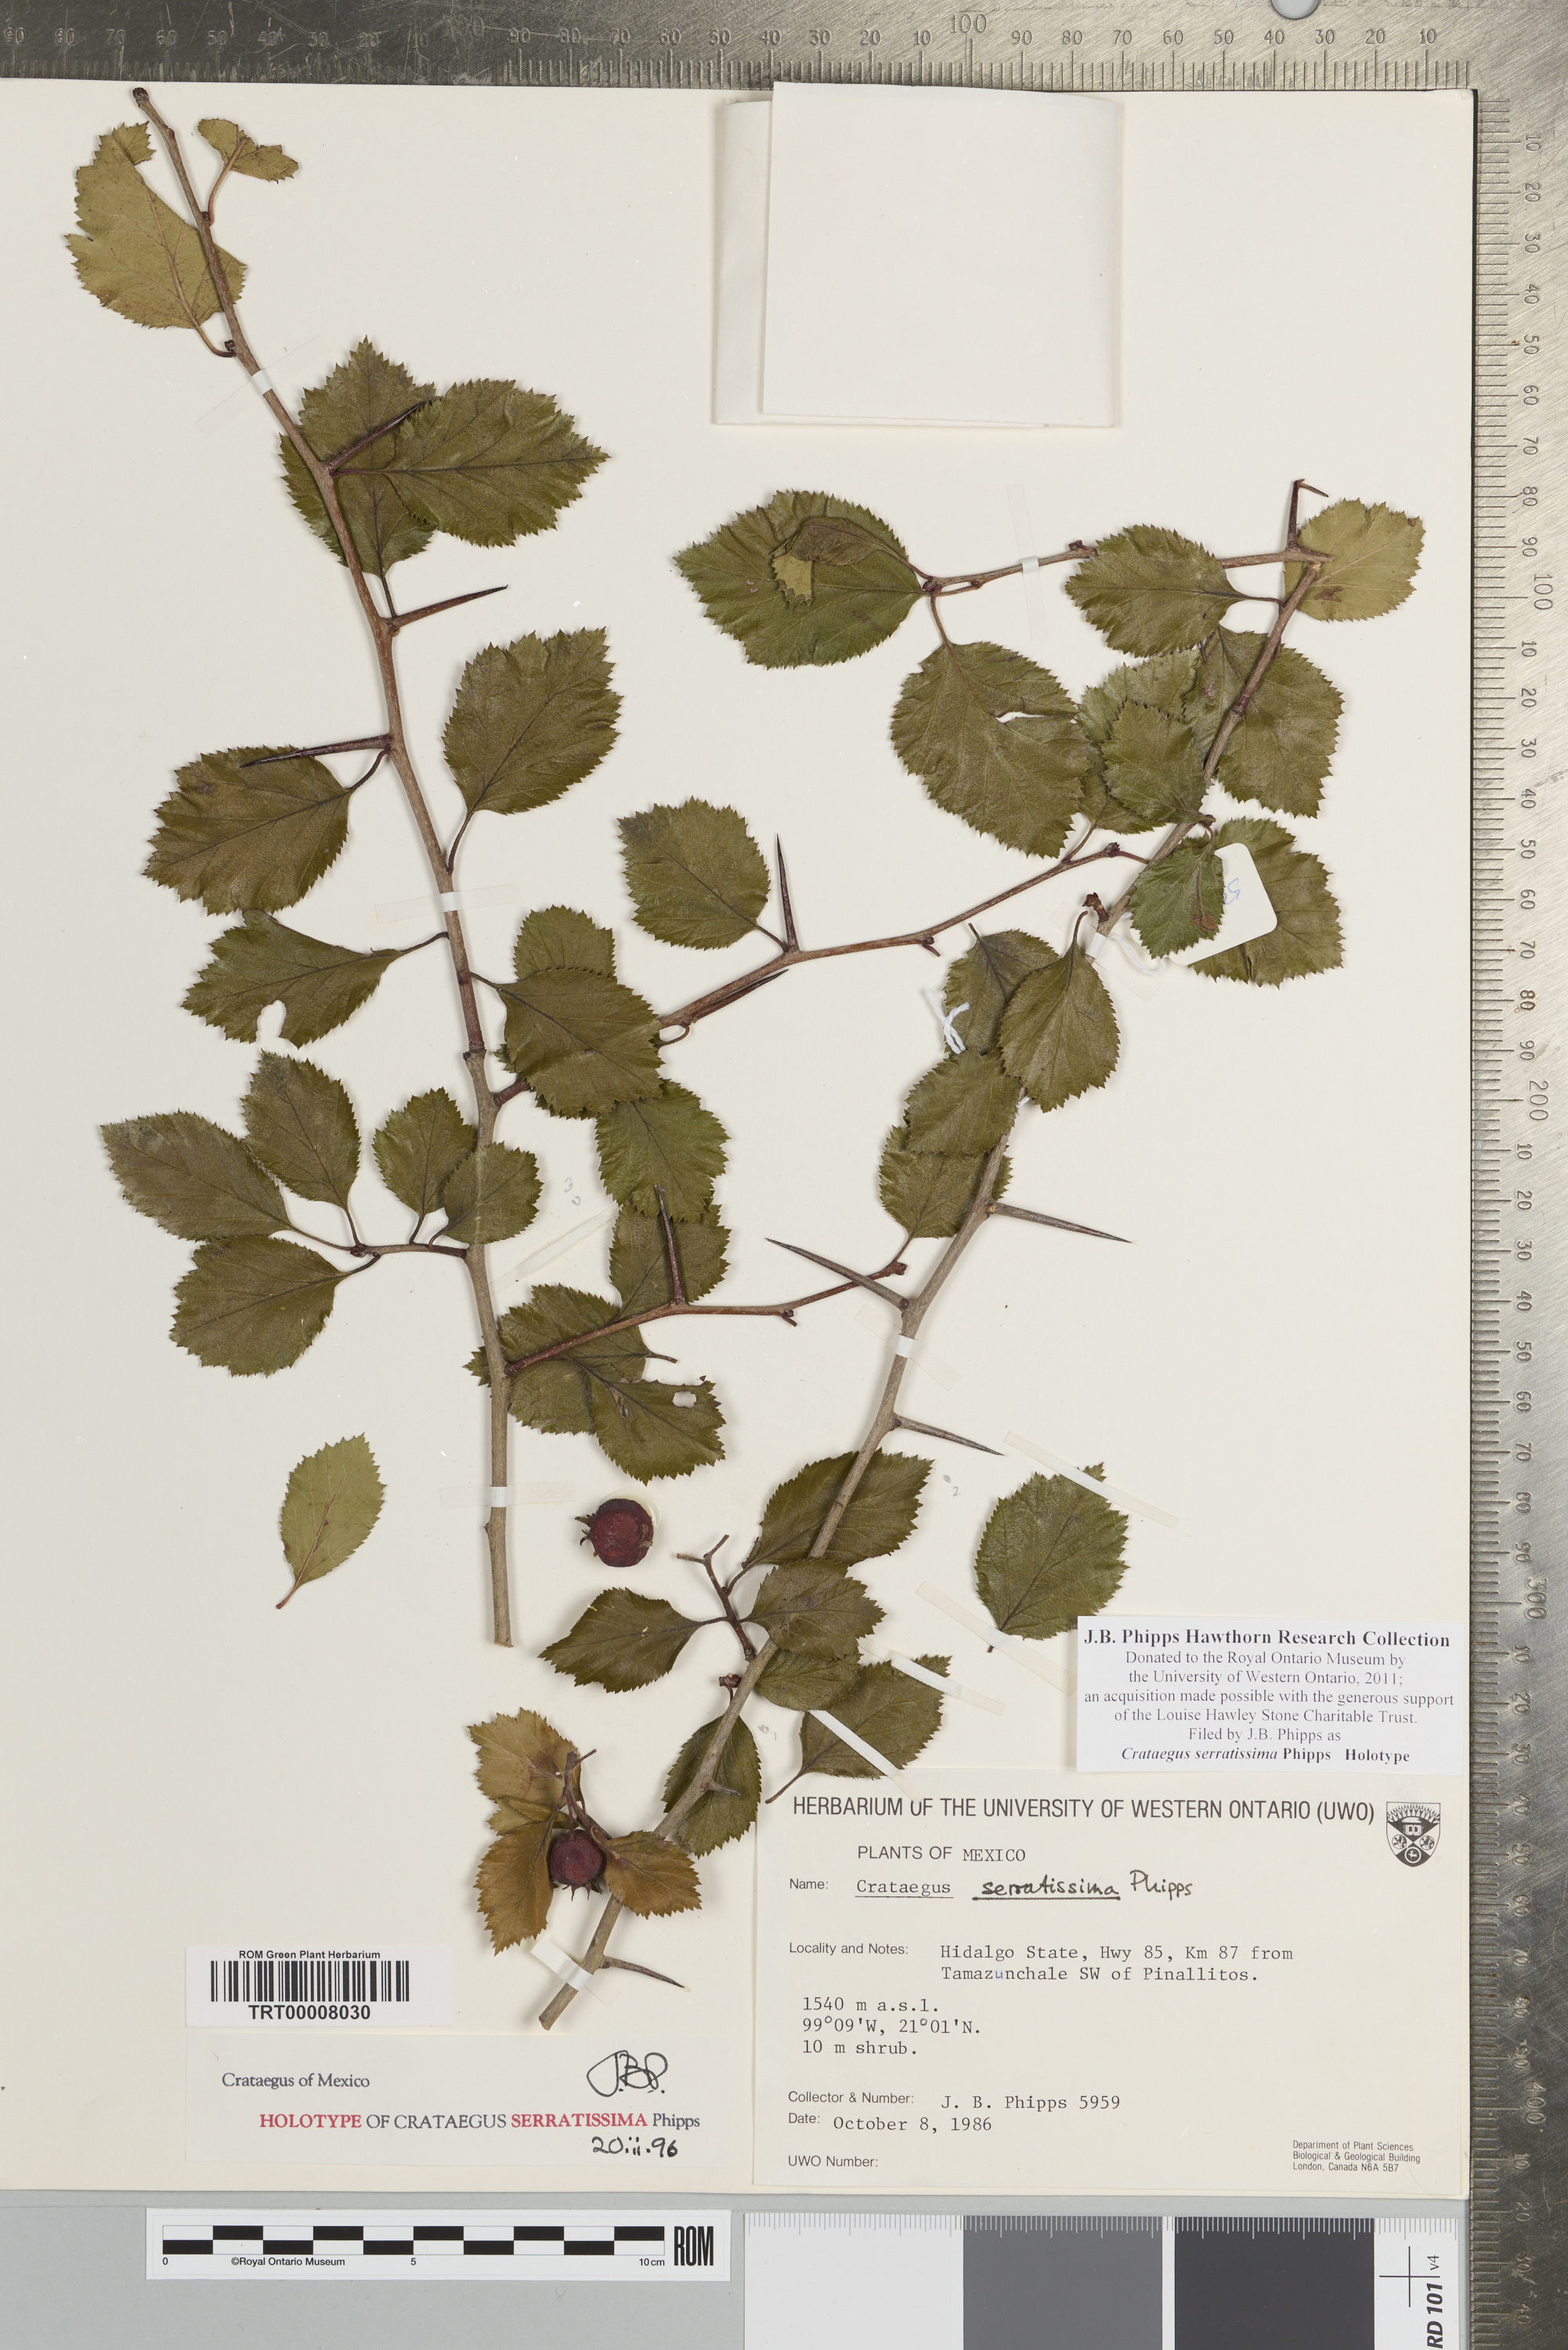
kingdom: Plantae
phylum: Tracheophyta
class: Magnoliopsida
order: Rosales
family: Rosaceae
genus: Crataegus
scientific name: Crataegus serratissima
